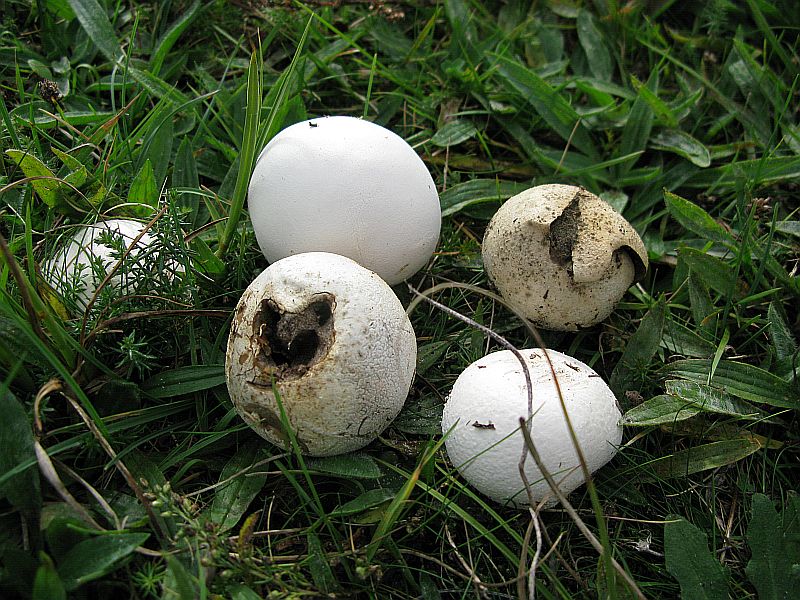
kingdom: Fungi
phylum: Basidiomycota
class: Agaricomycetes
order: Agaricales
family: Lycoperdaceae
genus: Bovista
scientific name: Bovista nigrescens
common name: sortagtig bovist
